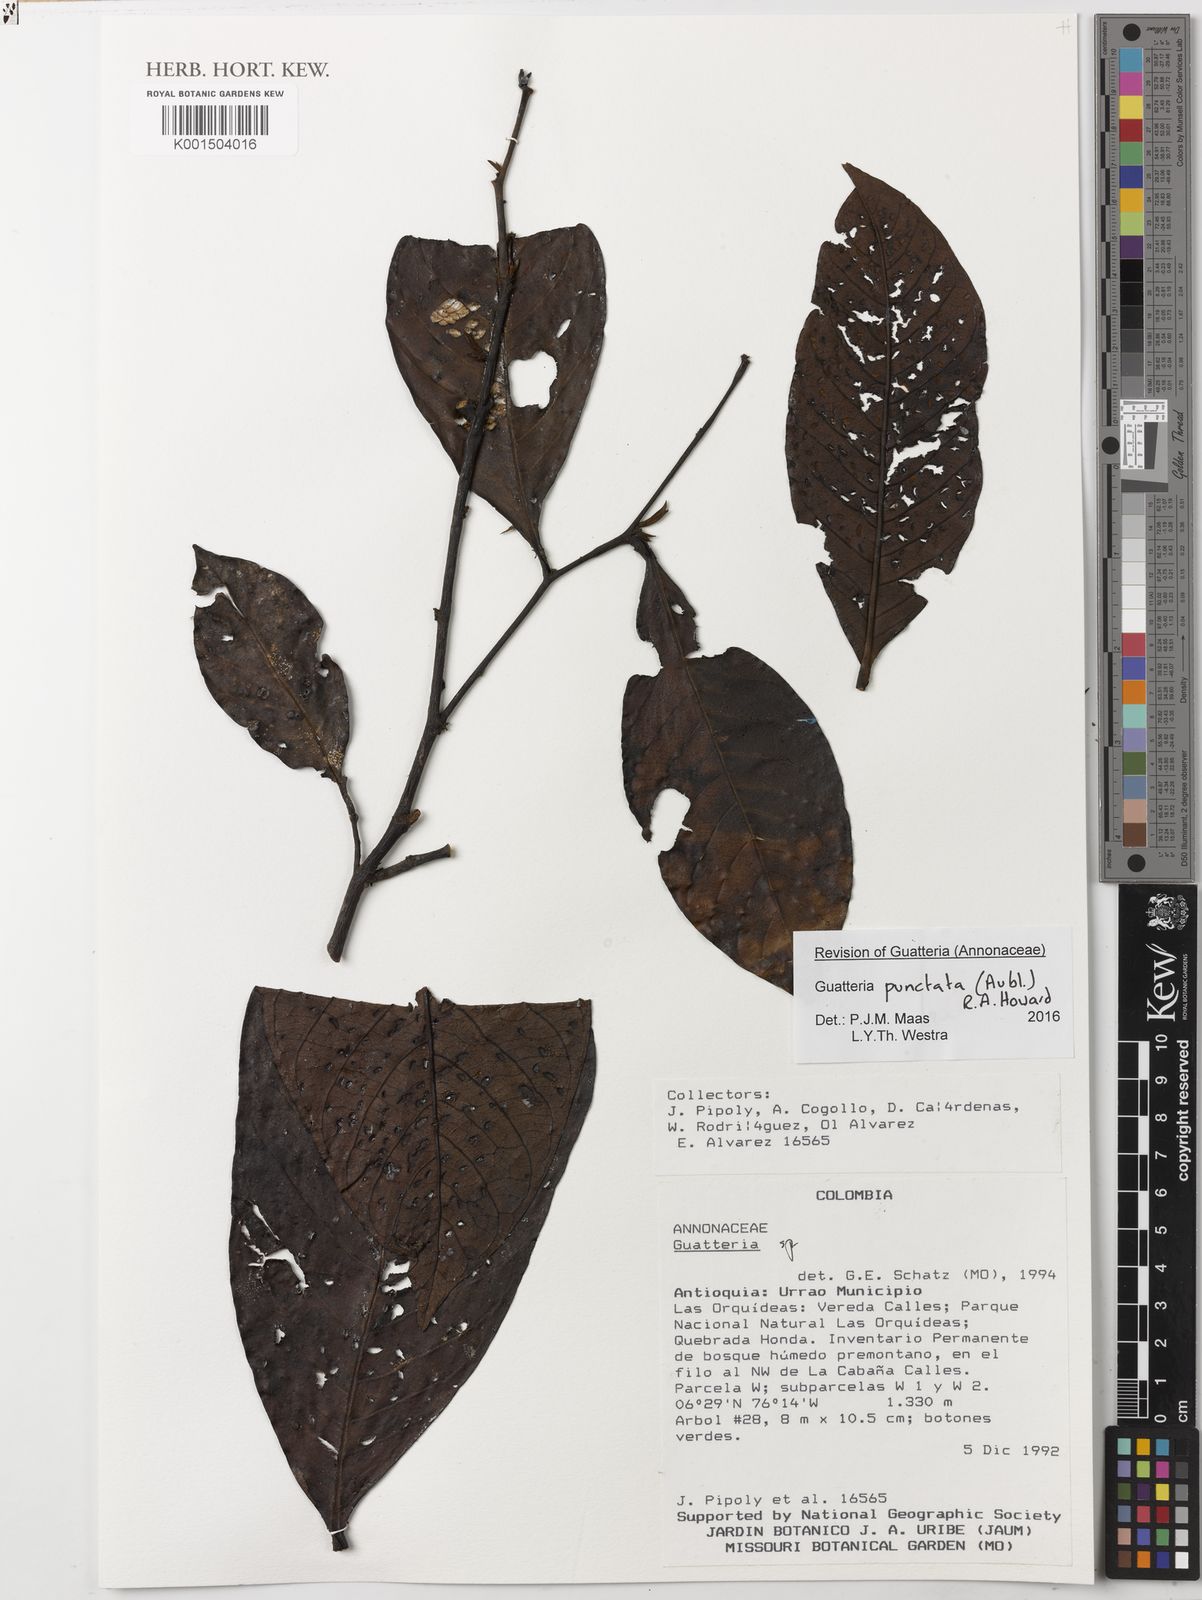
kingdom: Plantae
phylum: Tracheophyta
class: Magnoliopsida
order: Magnoliales
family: Annonaceae
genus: Guatteria
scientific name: Guatteria punctata
